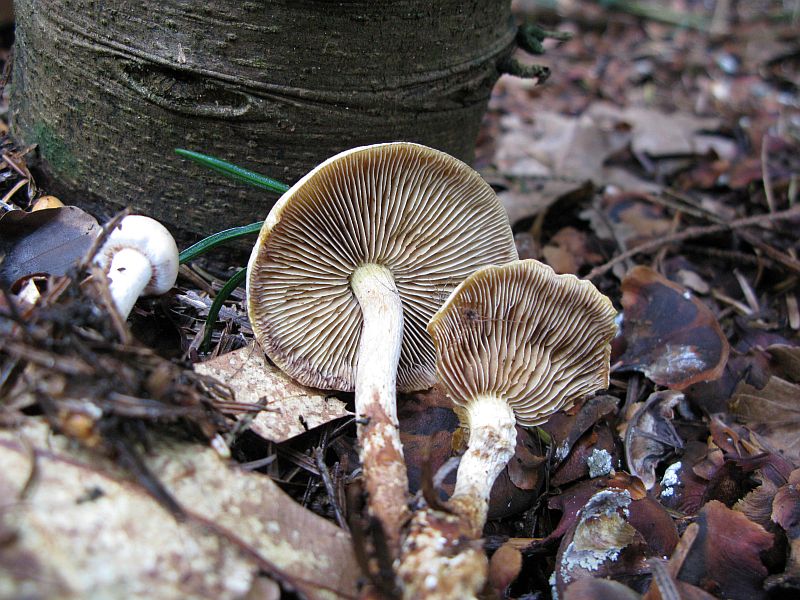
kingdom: Fungi
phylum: Basidiomycota
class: Agaricomycetes
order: Agaricales
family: Strophariaceae
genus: Hypholoma
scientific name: Hypholoma radicosum
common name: pælerods-svovlhat
